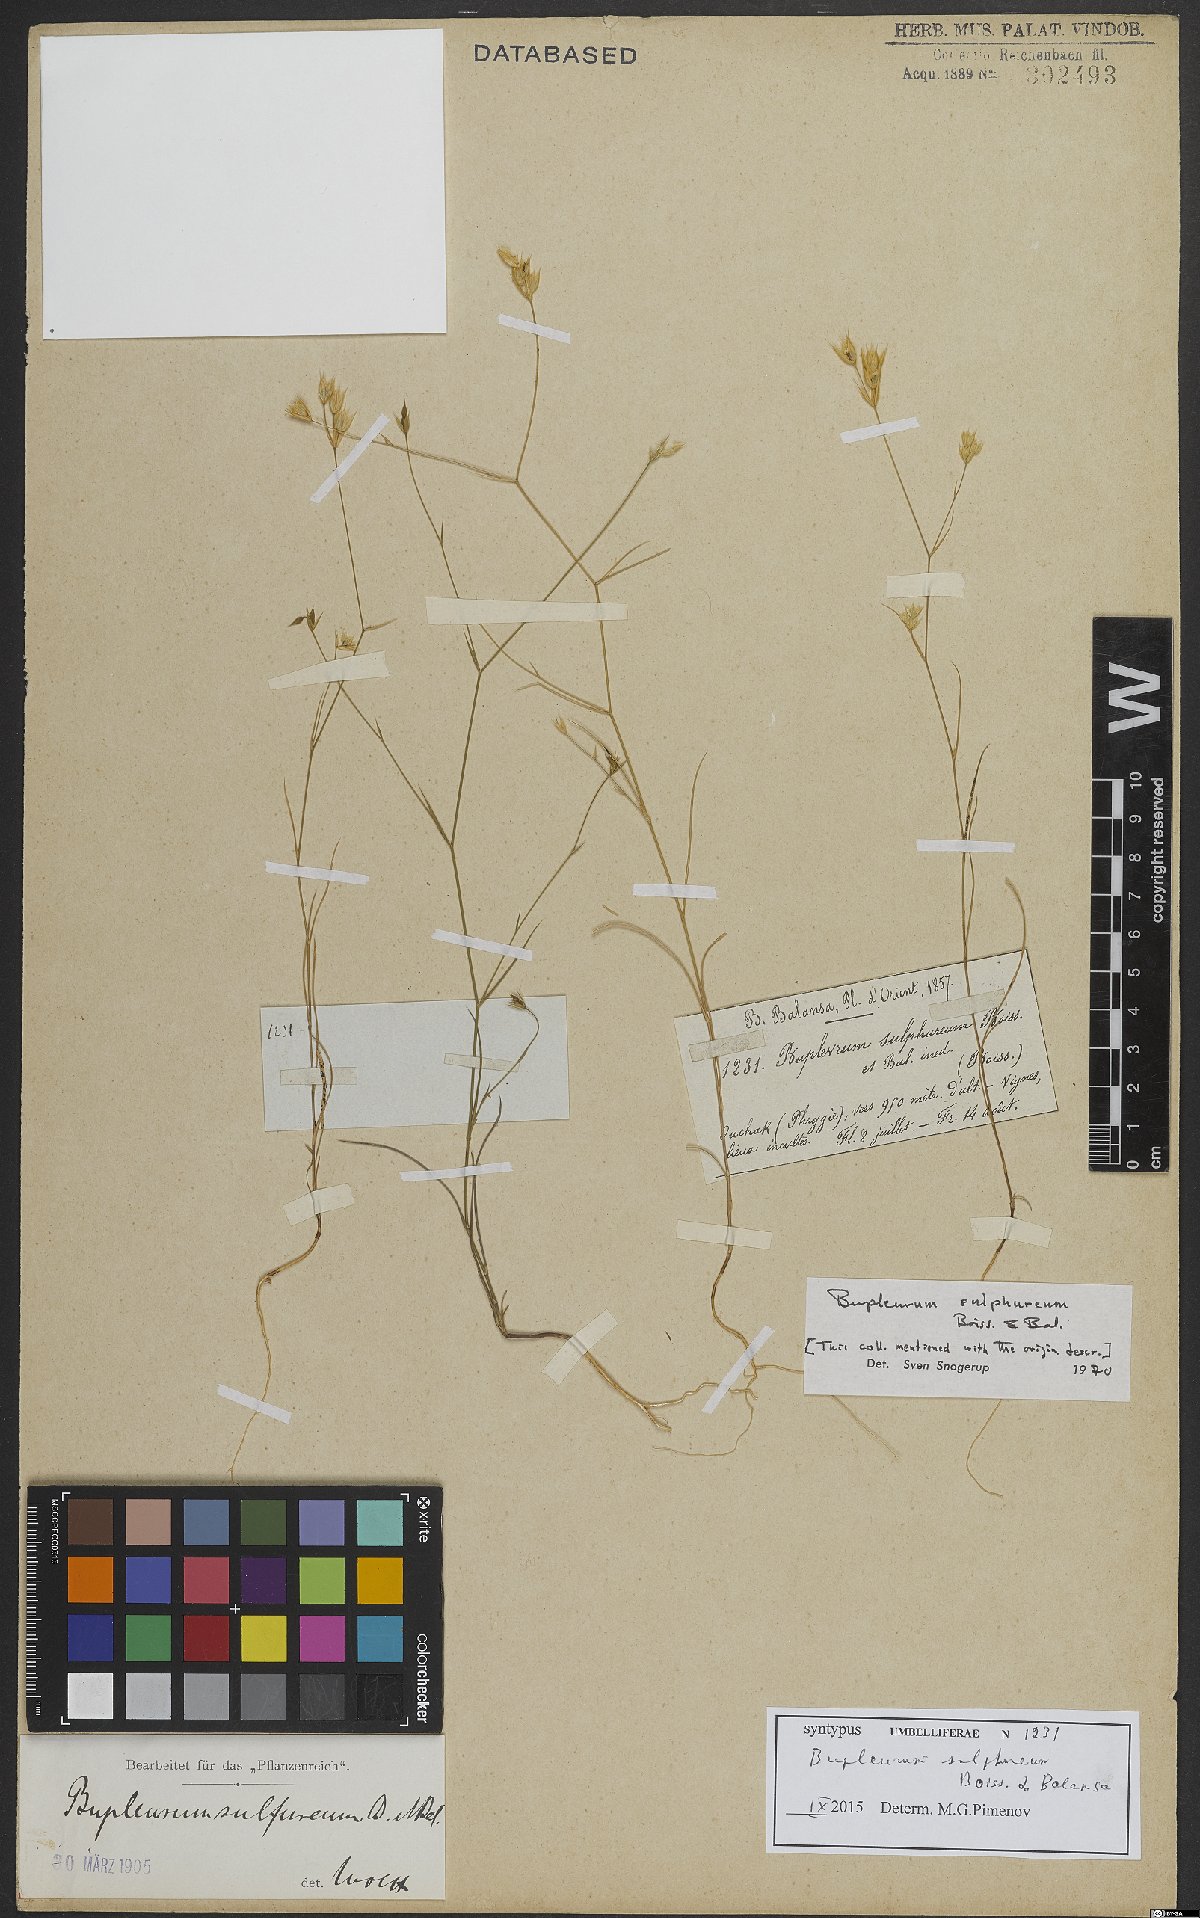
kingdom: Plantae
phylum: Tracheophyta
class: Magnoliopsida
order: Apiales
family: Apiaceae
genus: Bupleurum
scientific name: Bupleurum sulphureum
